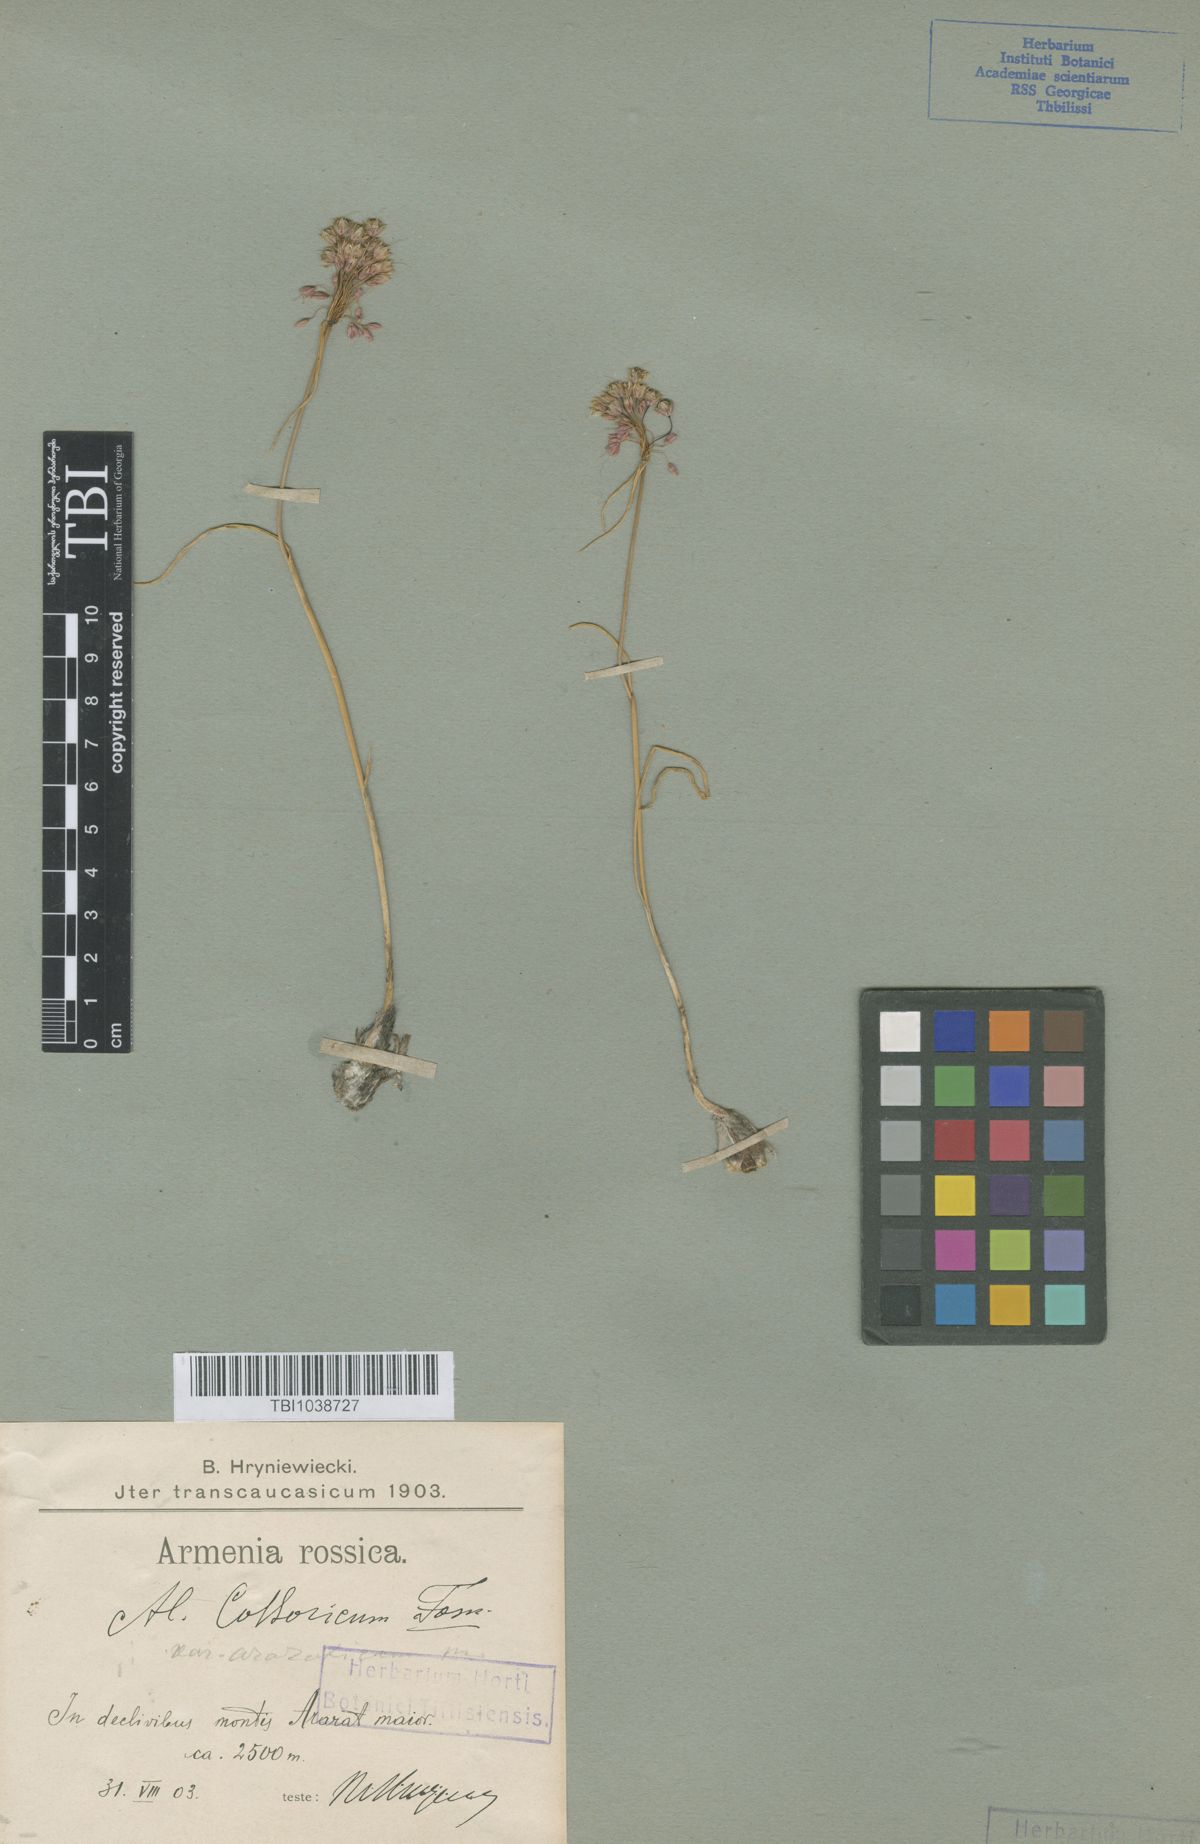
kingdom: Plantae
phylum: Tracheophyta
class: Liliopsida
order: Asparagales
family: Amaryllidaceae
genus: Allium
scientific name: Allium kossoricum
